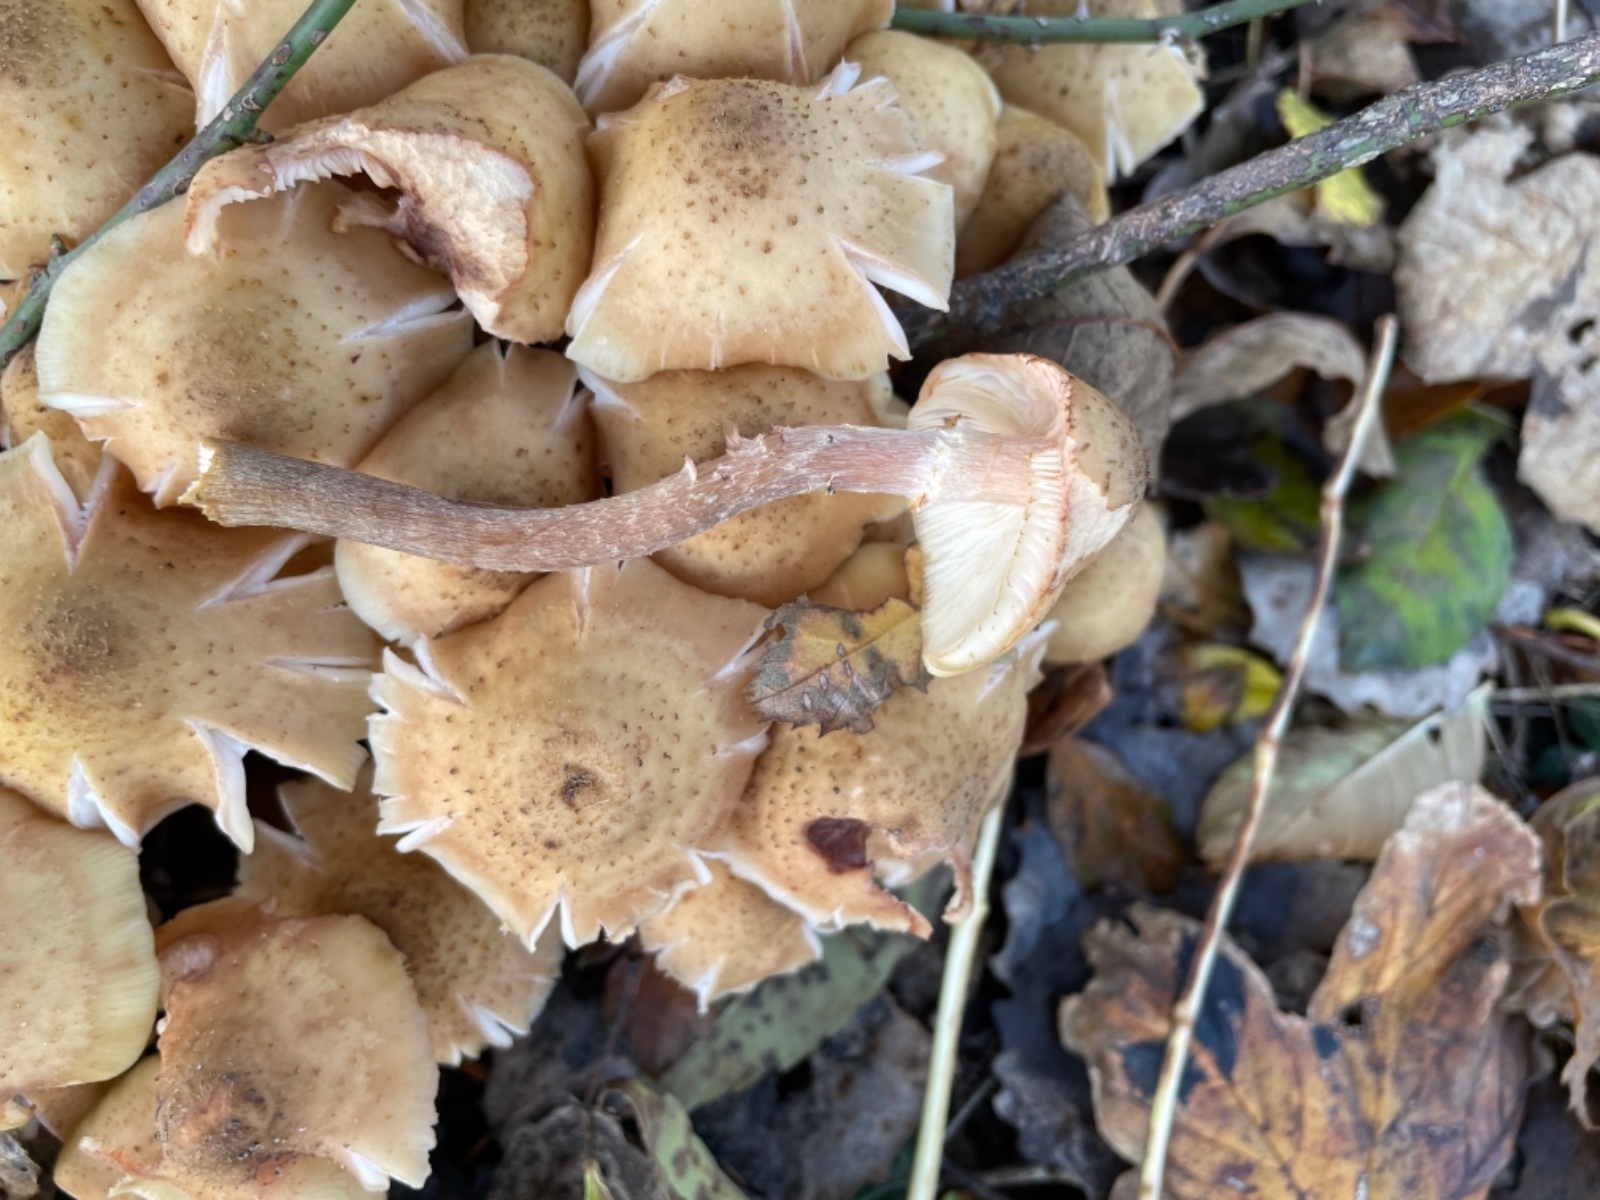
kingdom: Fungi
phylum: Basidiomycota
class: Agaricomycetes
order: Agaricales
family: Physalacriaceae
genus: Armillaria
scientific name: Armillaria mellea
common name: ægte honningsvamp
